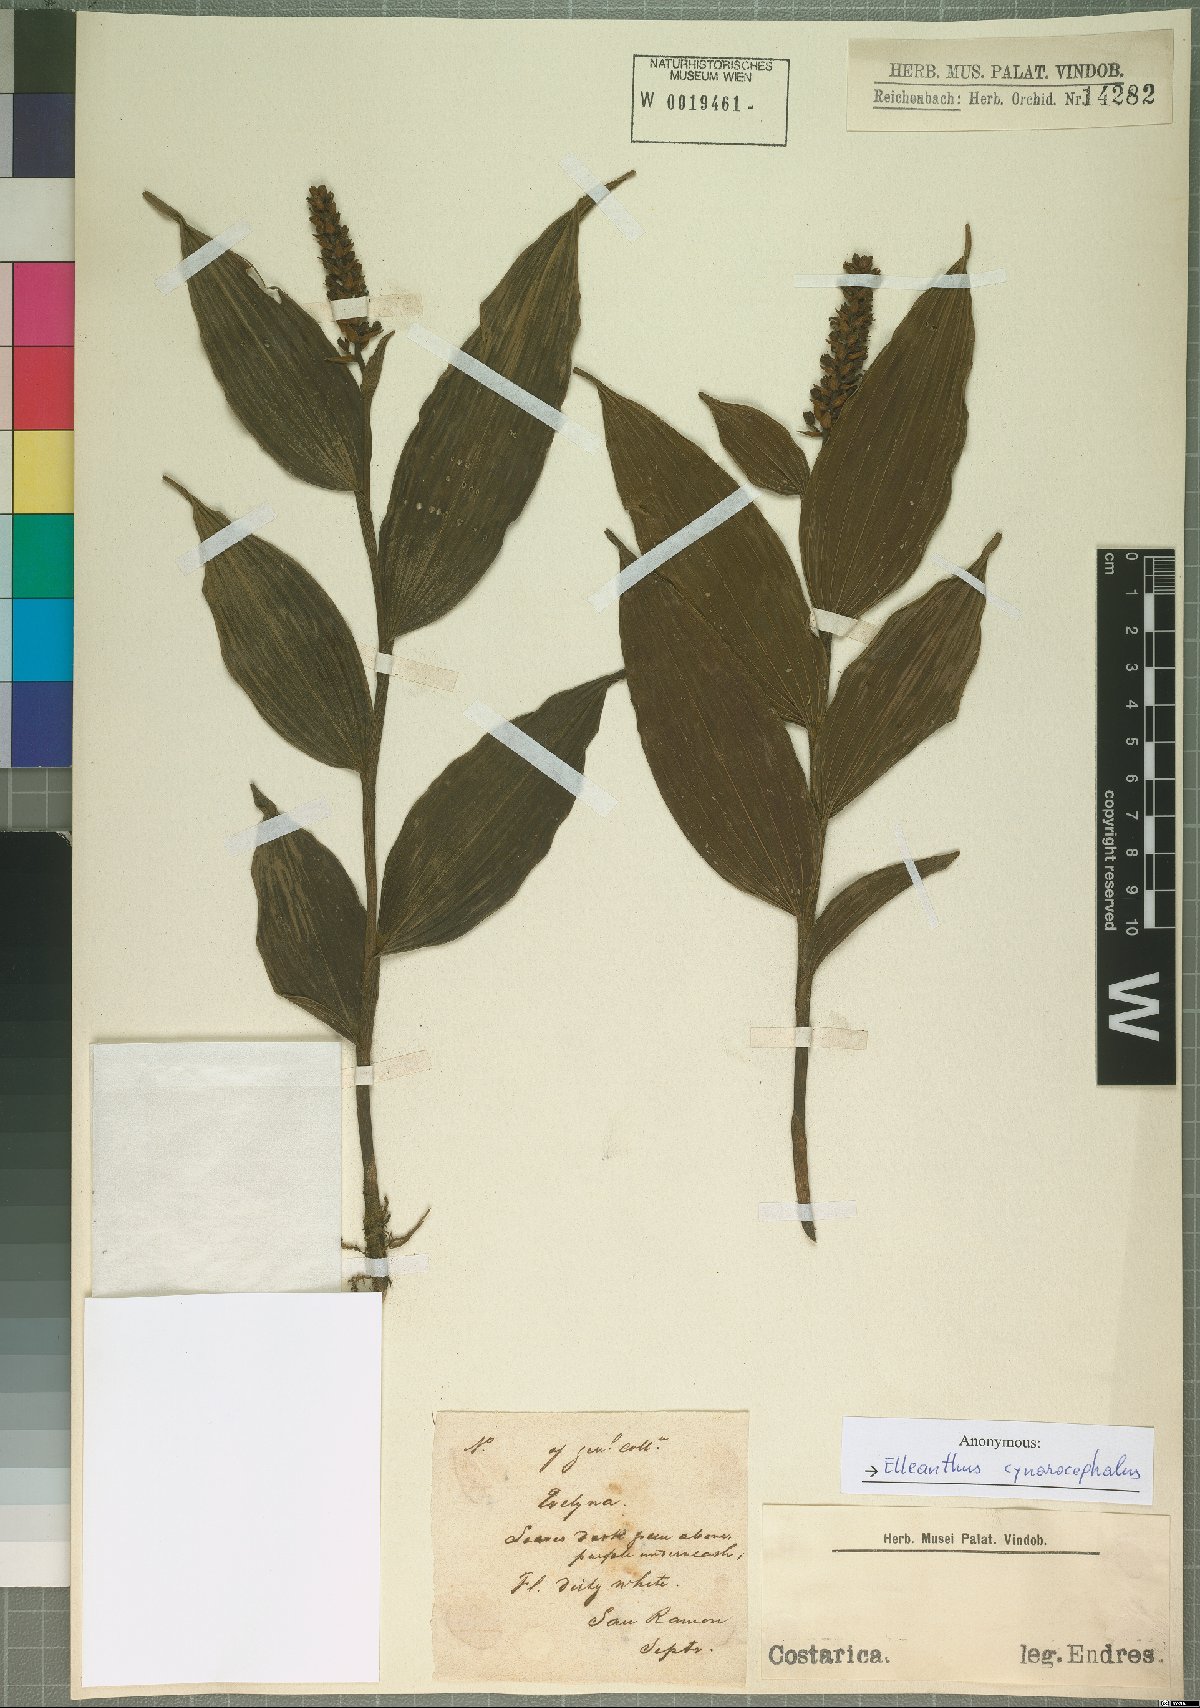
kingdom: Plantae
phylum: Tracheophyta
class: Liliopsida
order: Asparagales
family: Orchidaceae
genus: Elleanthus
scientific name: Elleanthus capitatus
